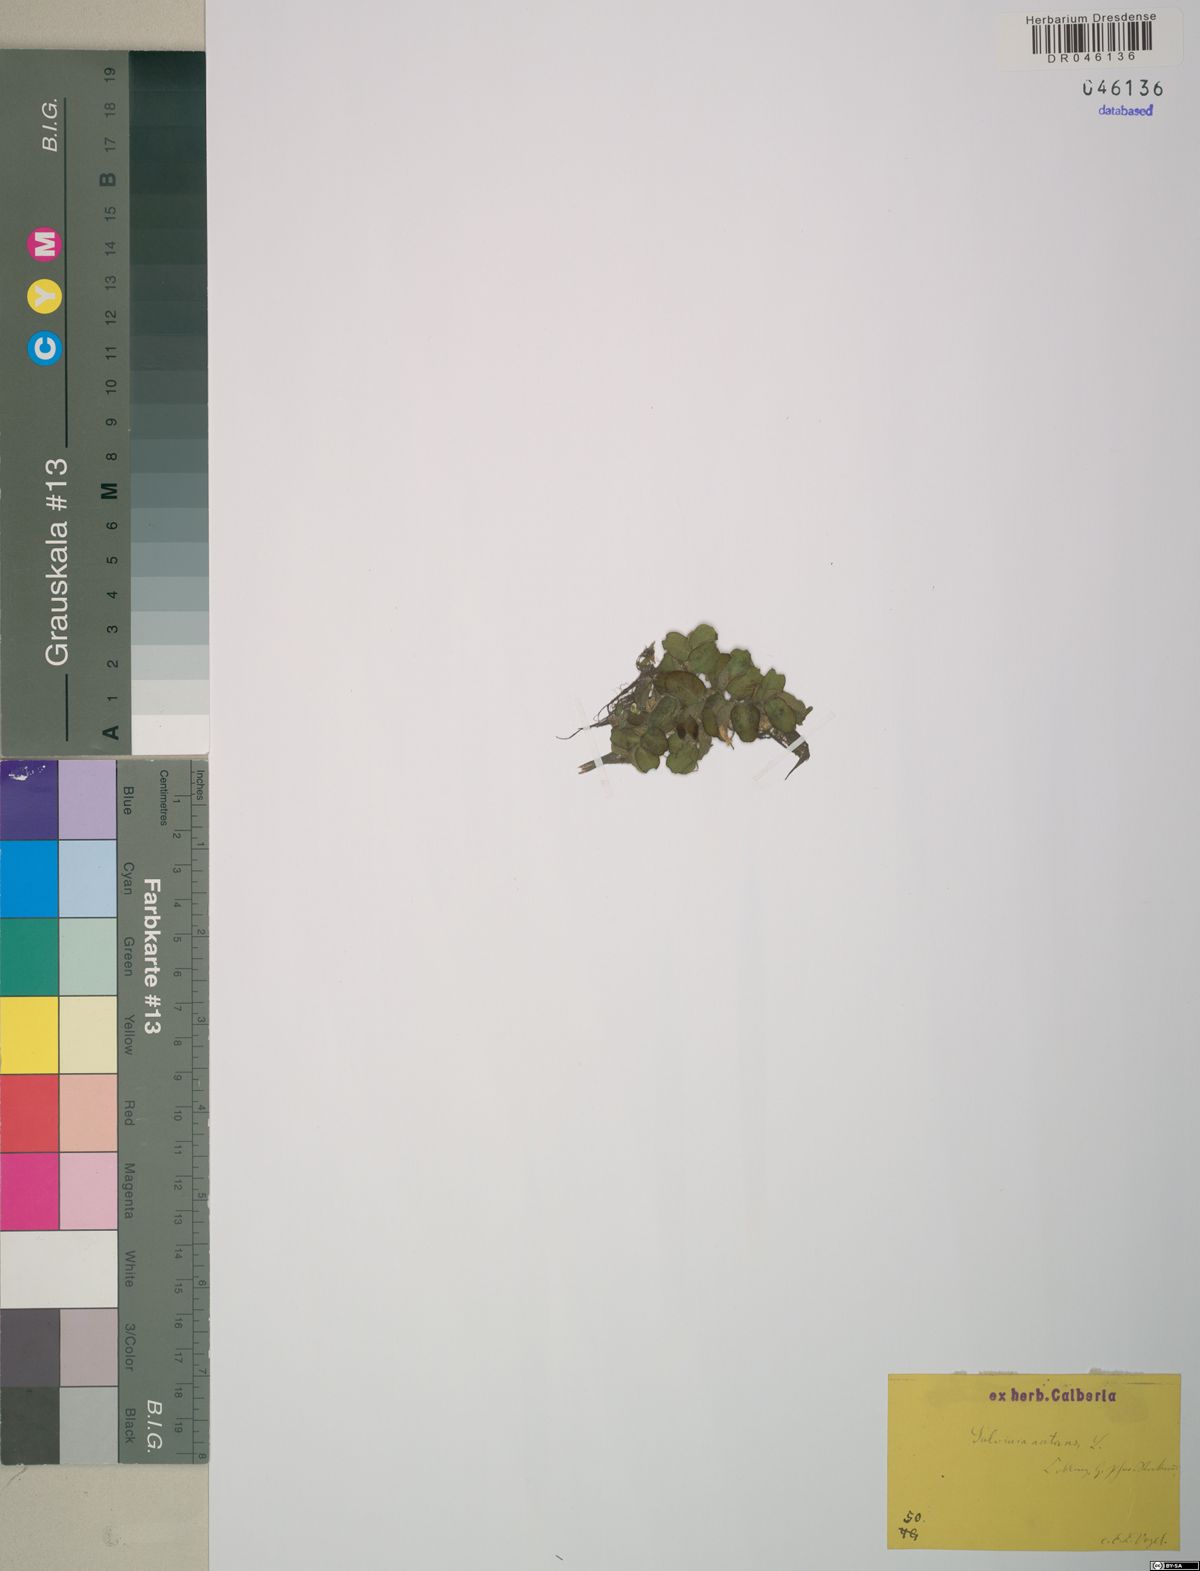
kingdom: Plantae
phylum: Tracheophyta
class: Polypodiopsida
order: Salviniales
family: Salviniaceae
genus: Salvinia
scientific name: Salvinia natans
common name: Floating fern
